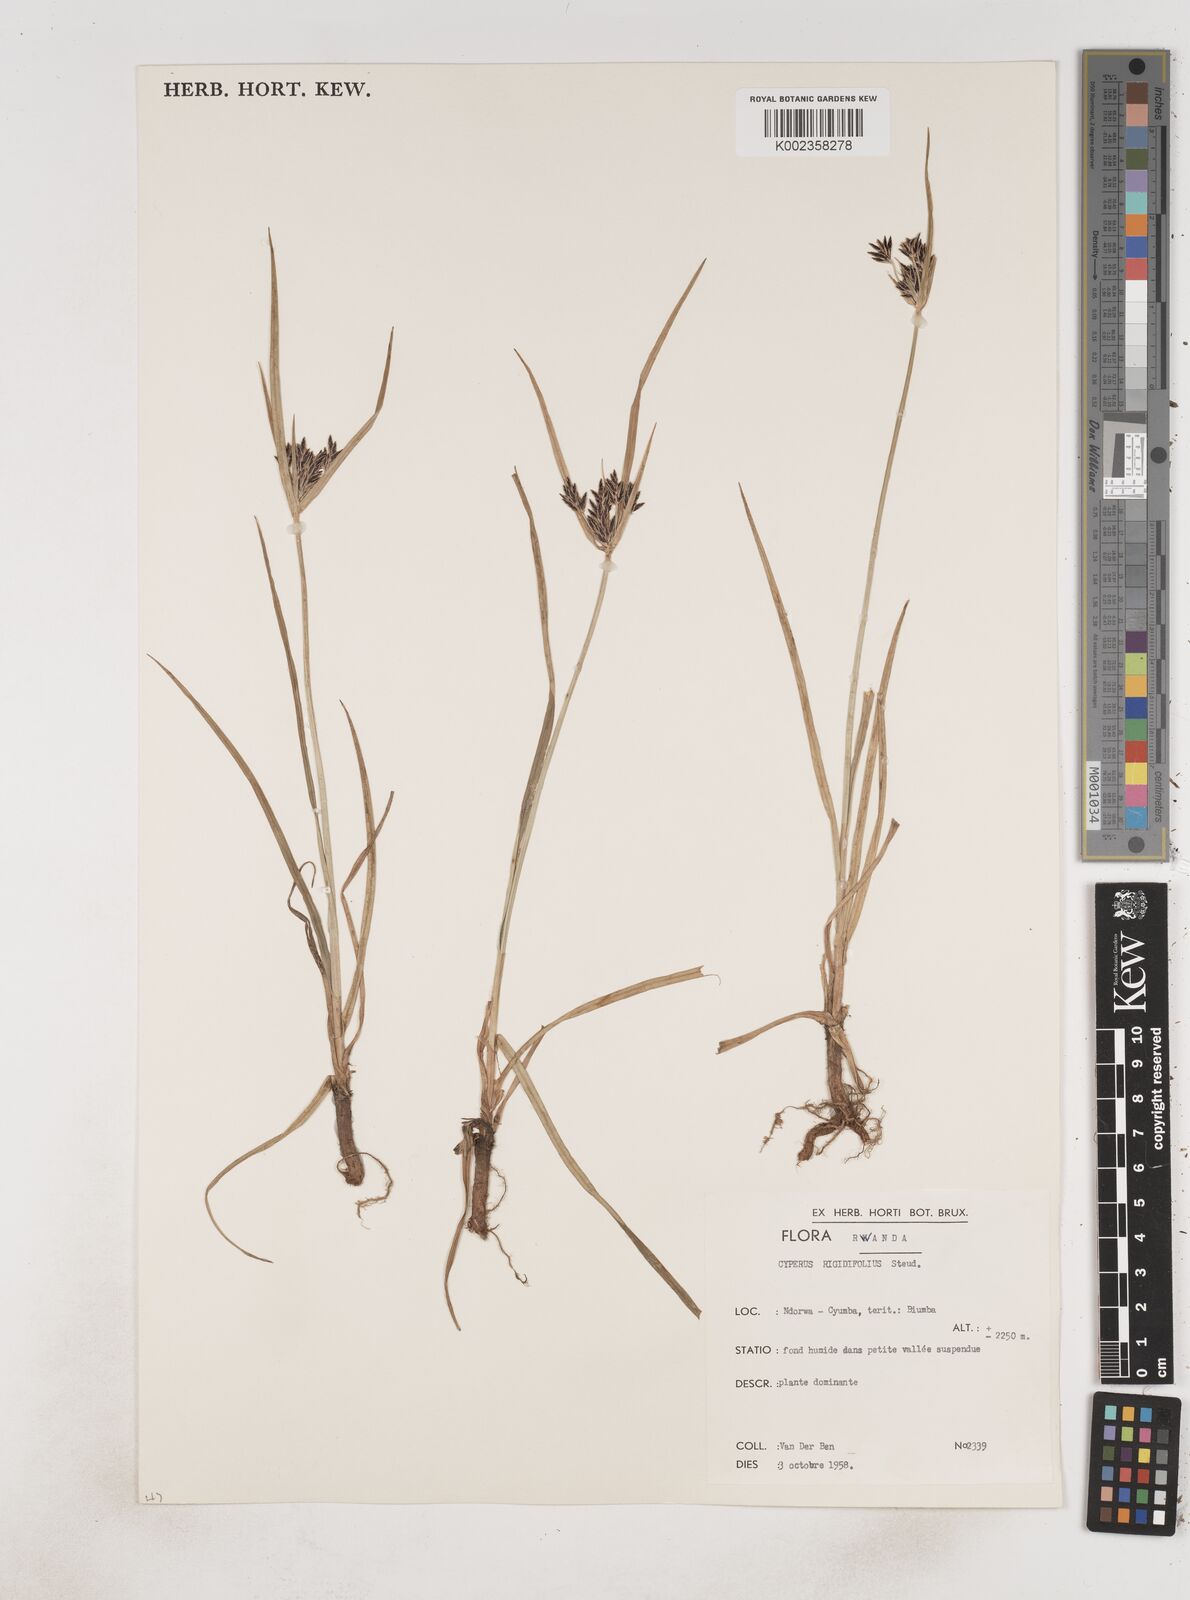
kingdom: Plantae
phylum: Tracheophyta
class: Liliopsida
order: Poales
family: Cyperaceae
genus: Cyperus
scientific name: Cyperus rigidifolius
